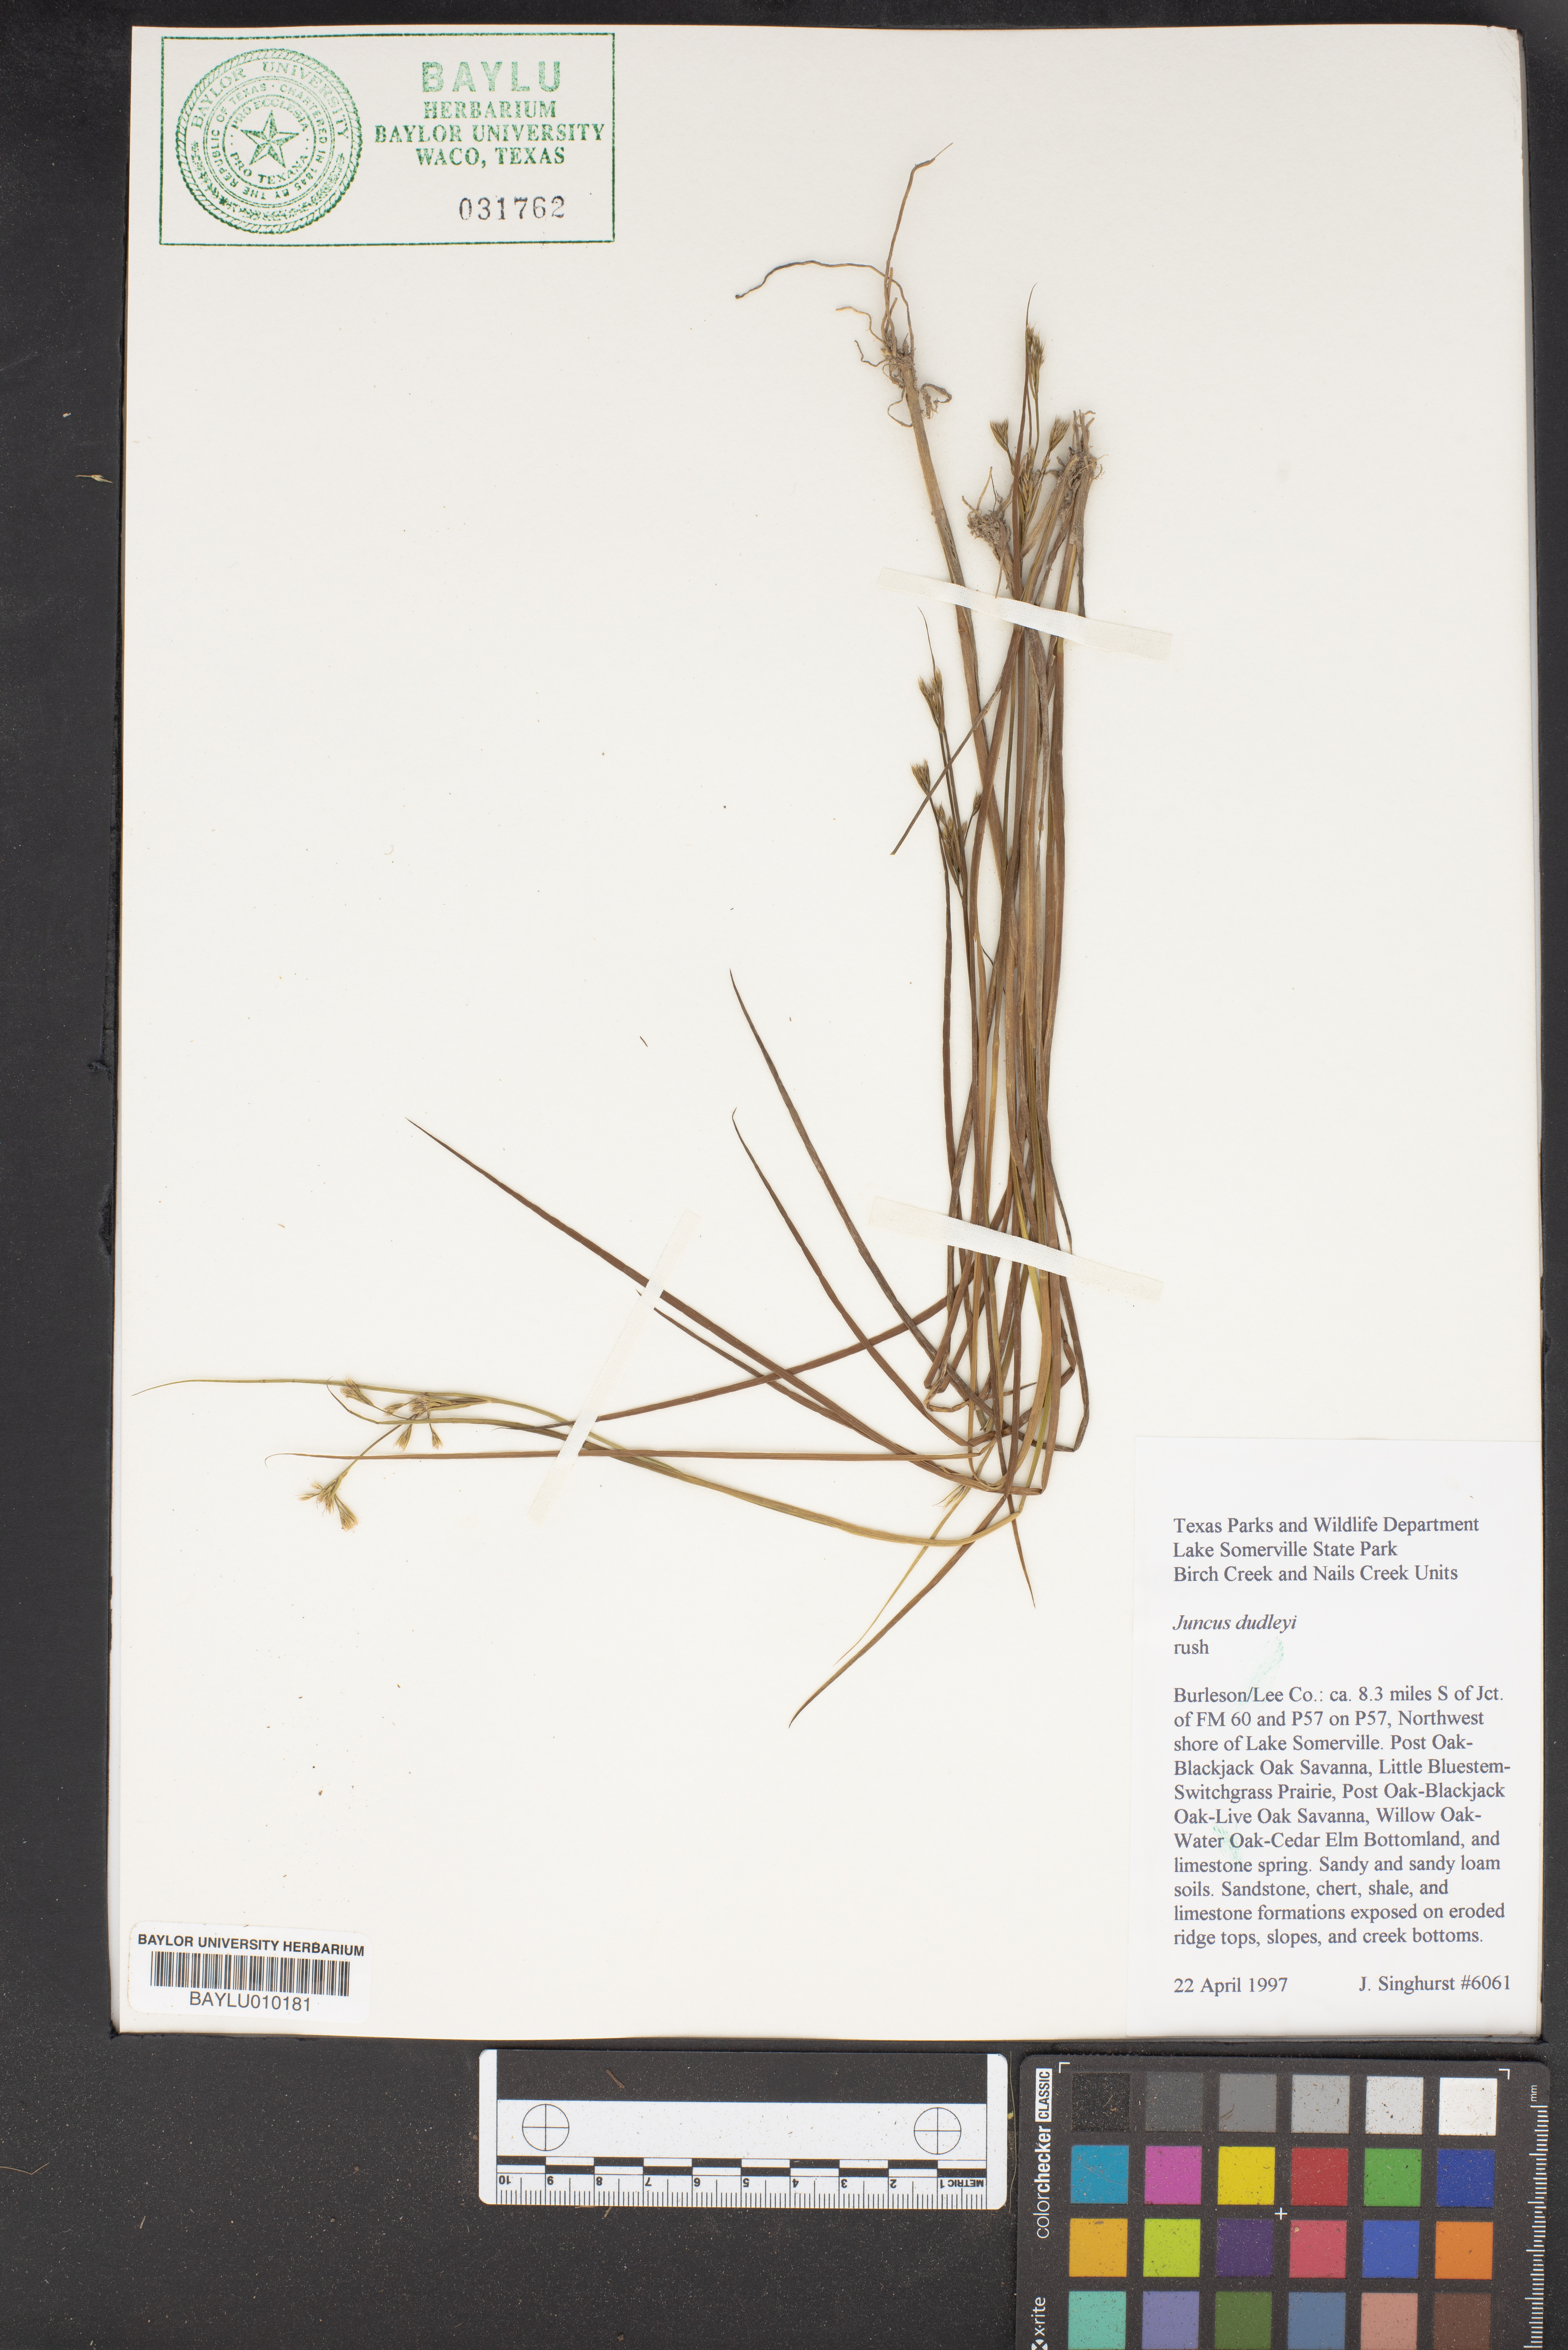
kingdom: Plantae
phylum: Tracheophyta
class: Liliopsida
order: Poales
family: Juncaceae
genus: Juncus
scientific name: Juncus dudleyi
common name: Dudley's rush
